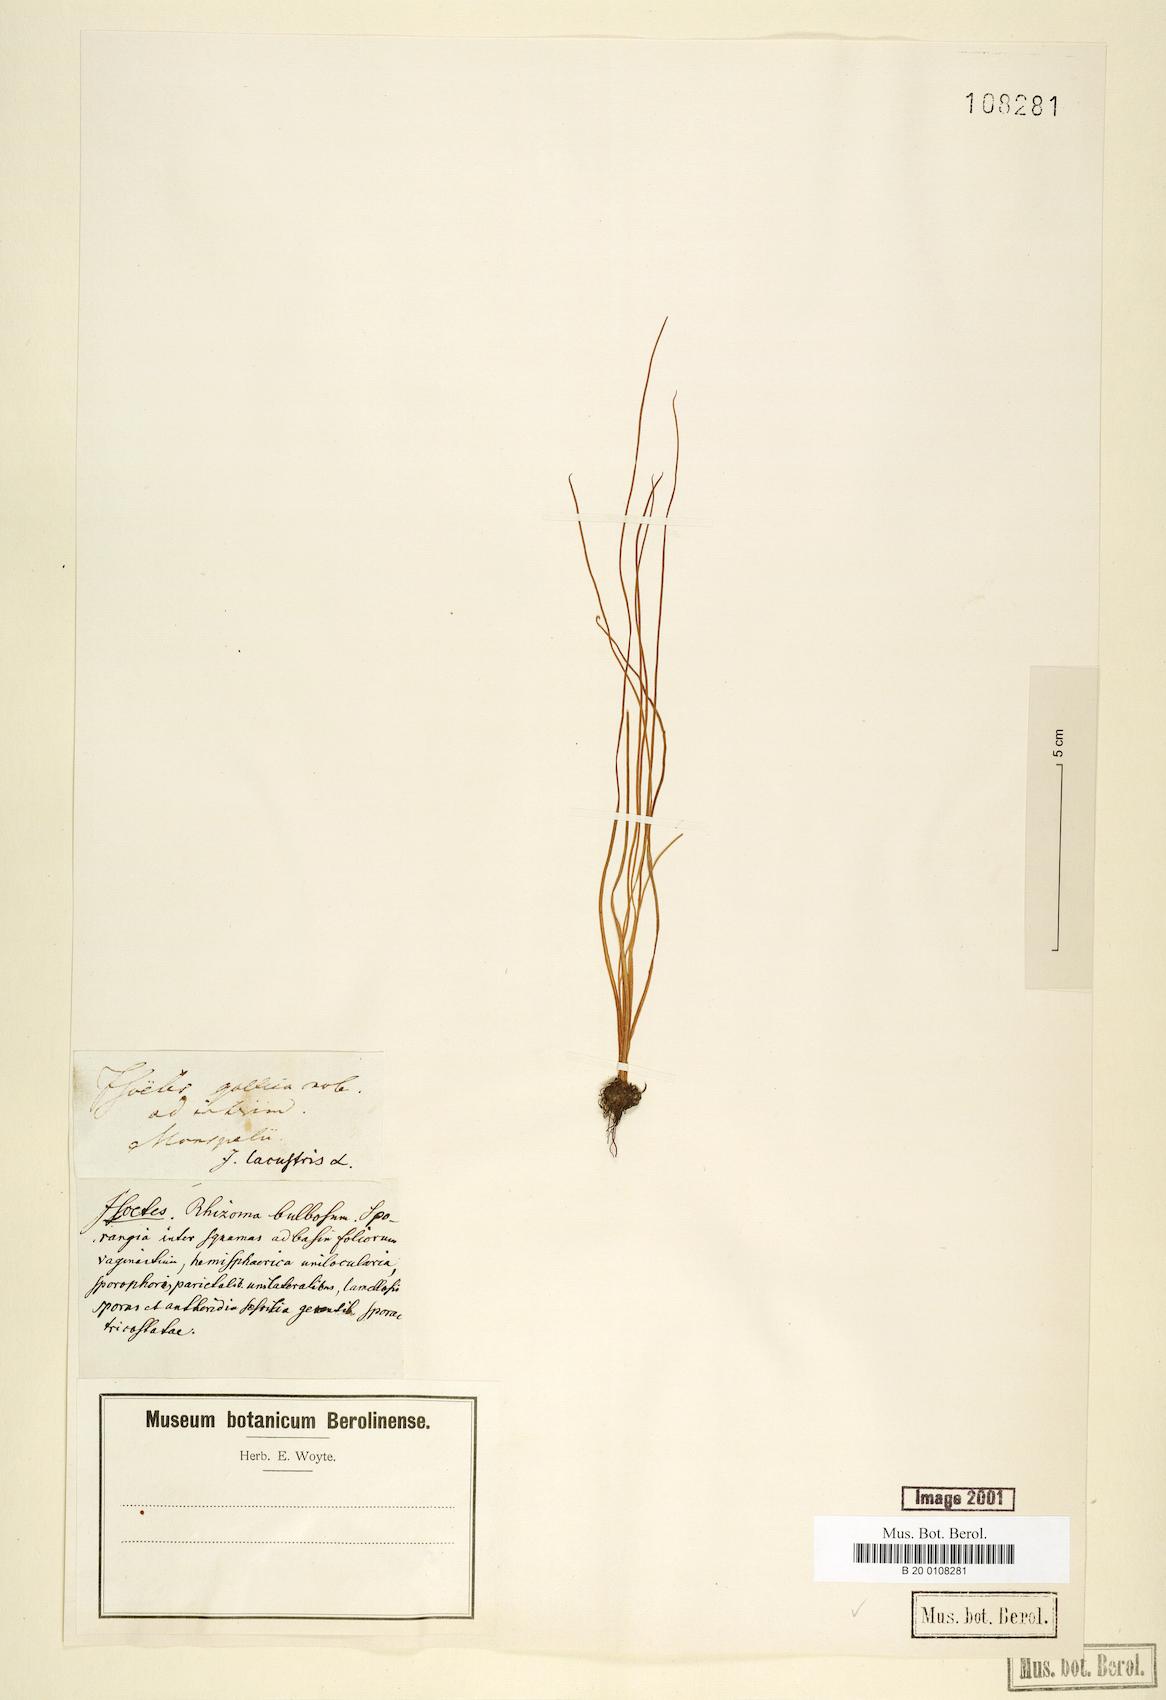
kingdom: Plantae
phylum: Tracheophyta
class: Lycopodiopsida
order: Isoetales
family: Isoetaceae
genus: Isoetes
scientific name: Isoetes lacustris
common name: Common quillwort
